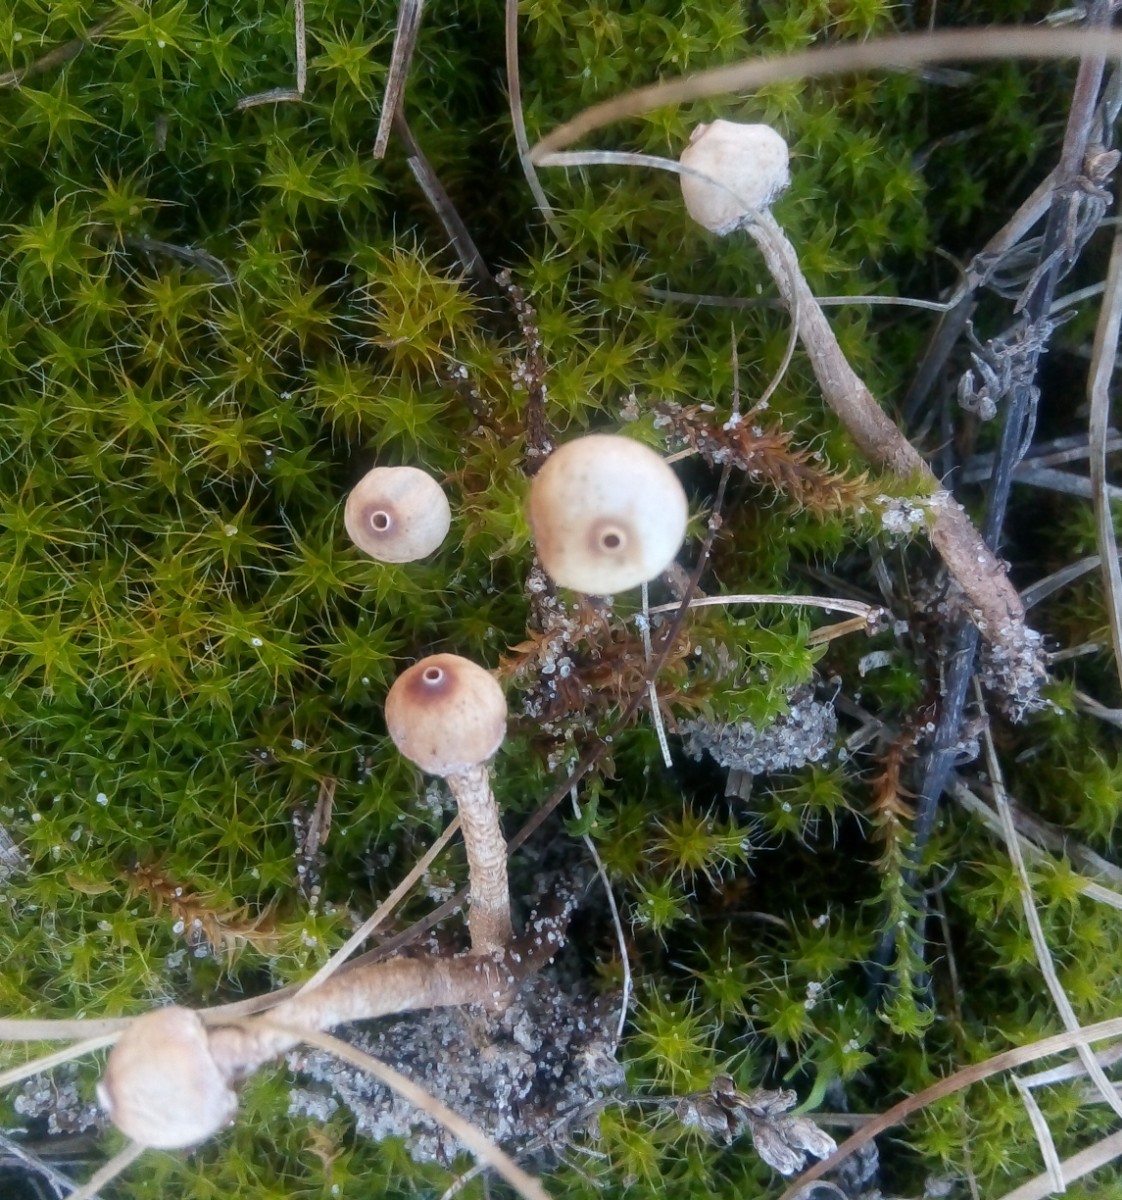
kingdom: Fungi
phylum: Basidiomycota
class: Agaricomycetes
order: Agaricales
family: Agaricaceae
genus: Tulostoma
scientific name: Tulostoma brumale
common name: vinter-stilkbovist
